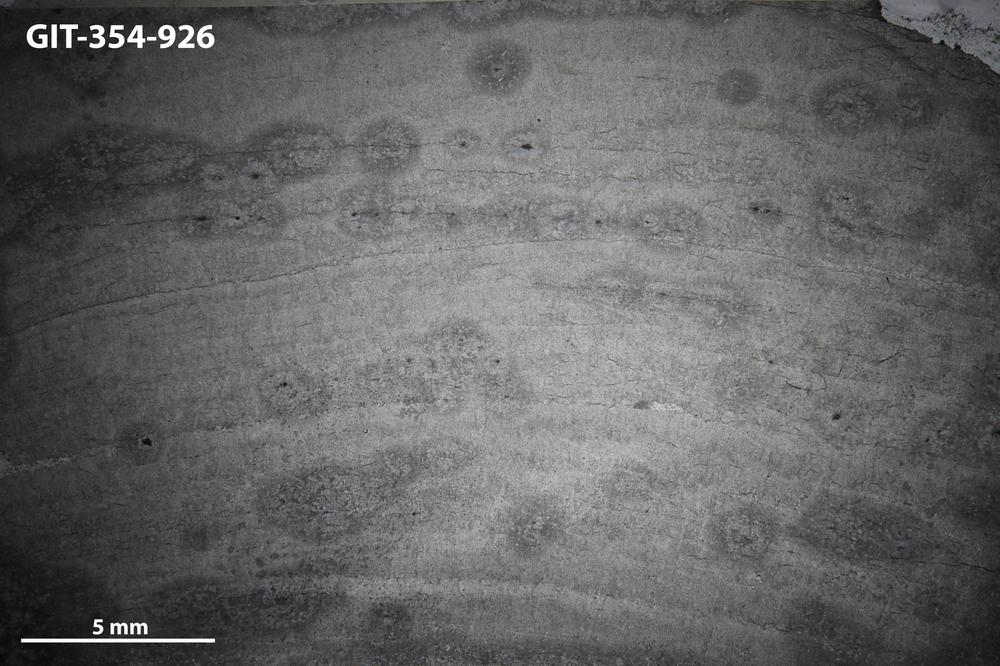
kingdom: Animalia
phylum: Porifera
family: Densastromatidae
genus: Densastroma
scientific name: Densastroma Actinostroma pexisum
